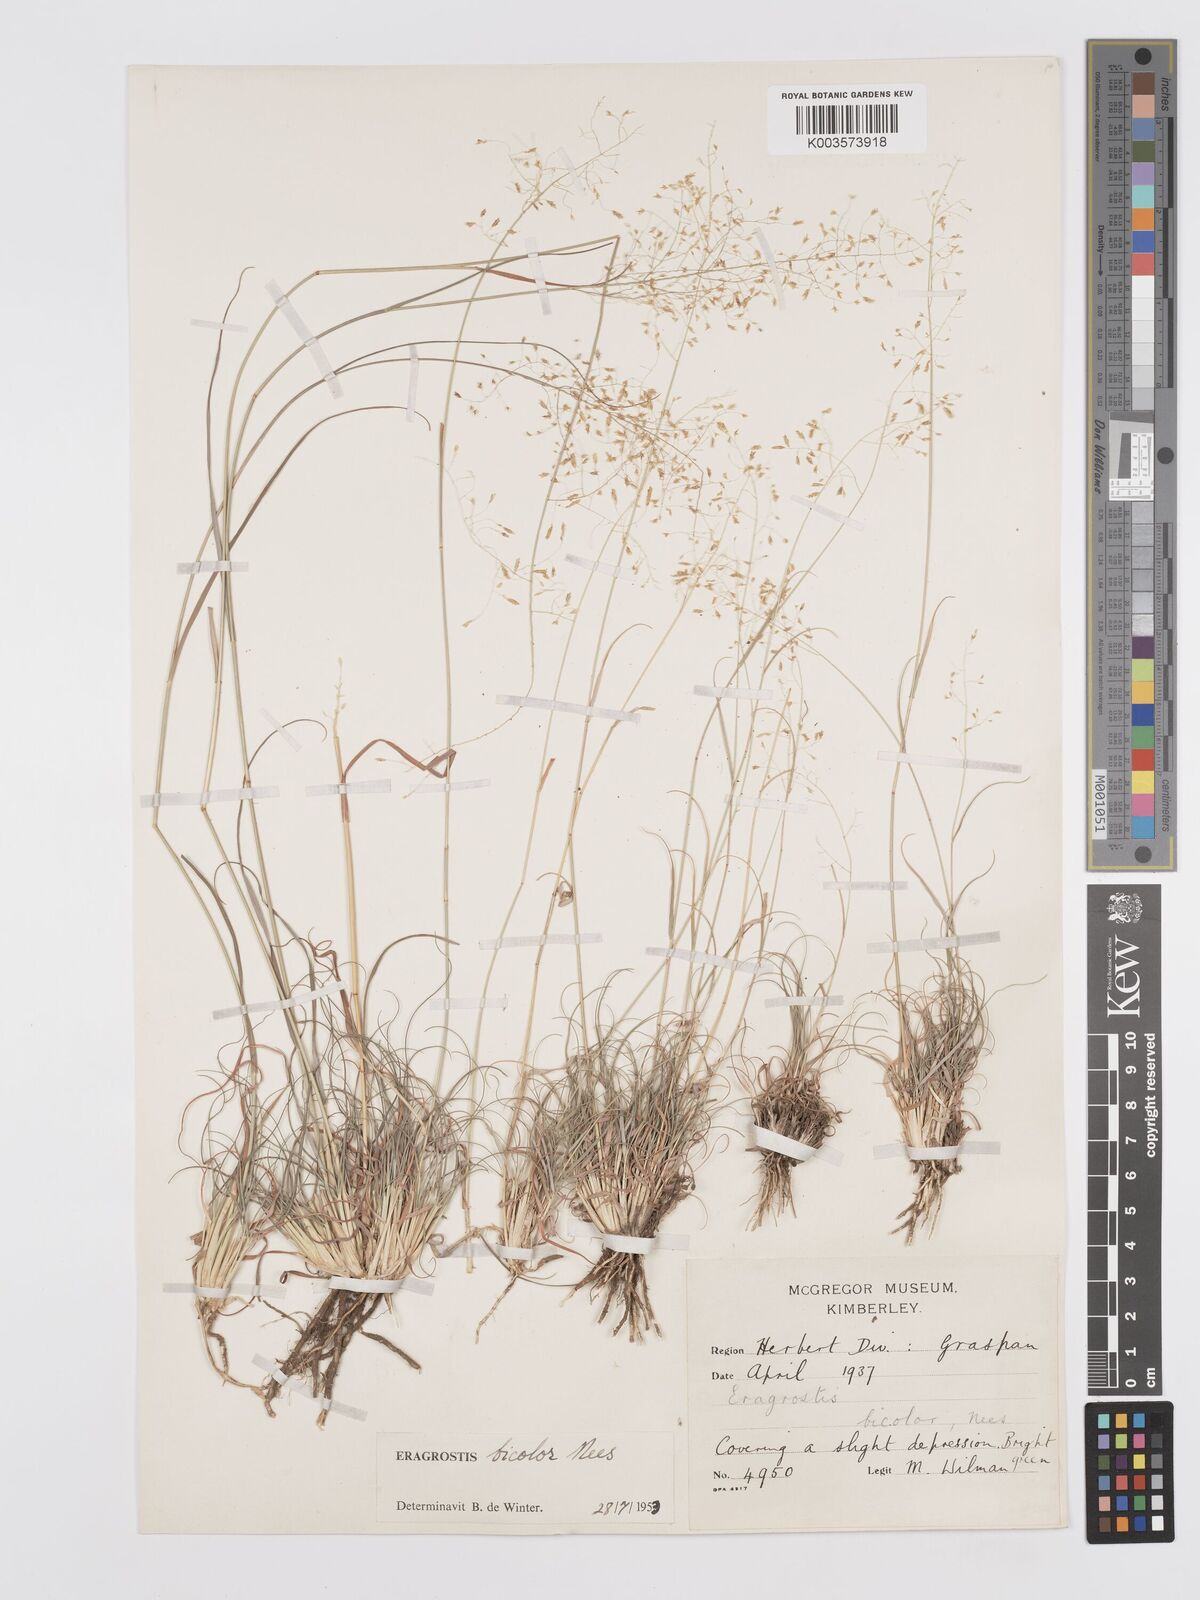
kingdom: Plantae
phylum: Tracheophyta
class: Liliopsida
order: Poales
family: Poaceae
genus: Eragrostis
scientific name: Eragrostis
